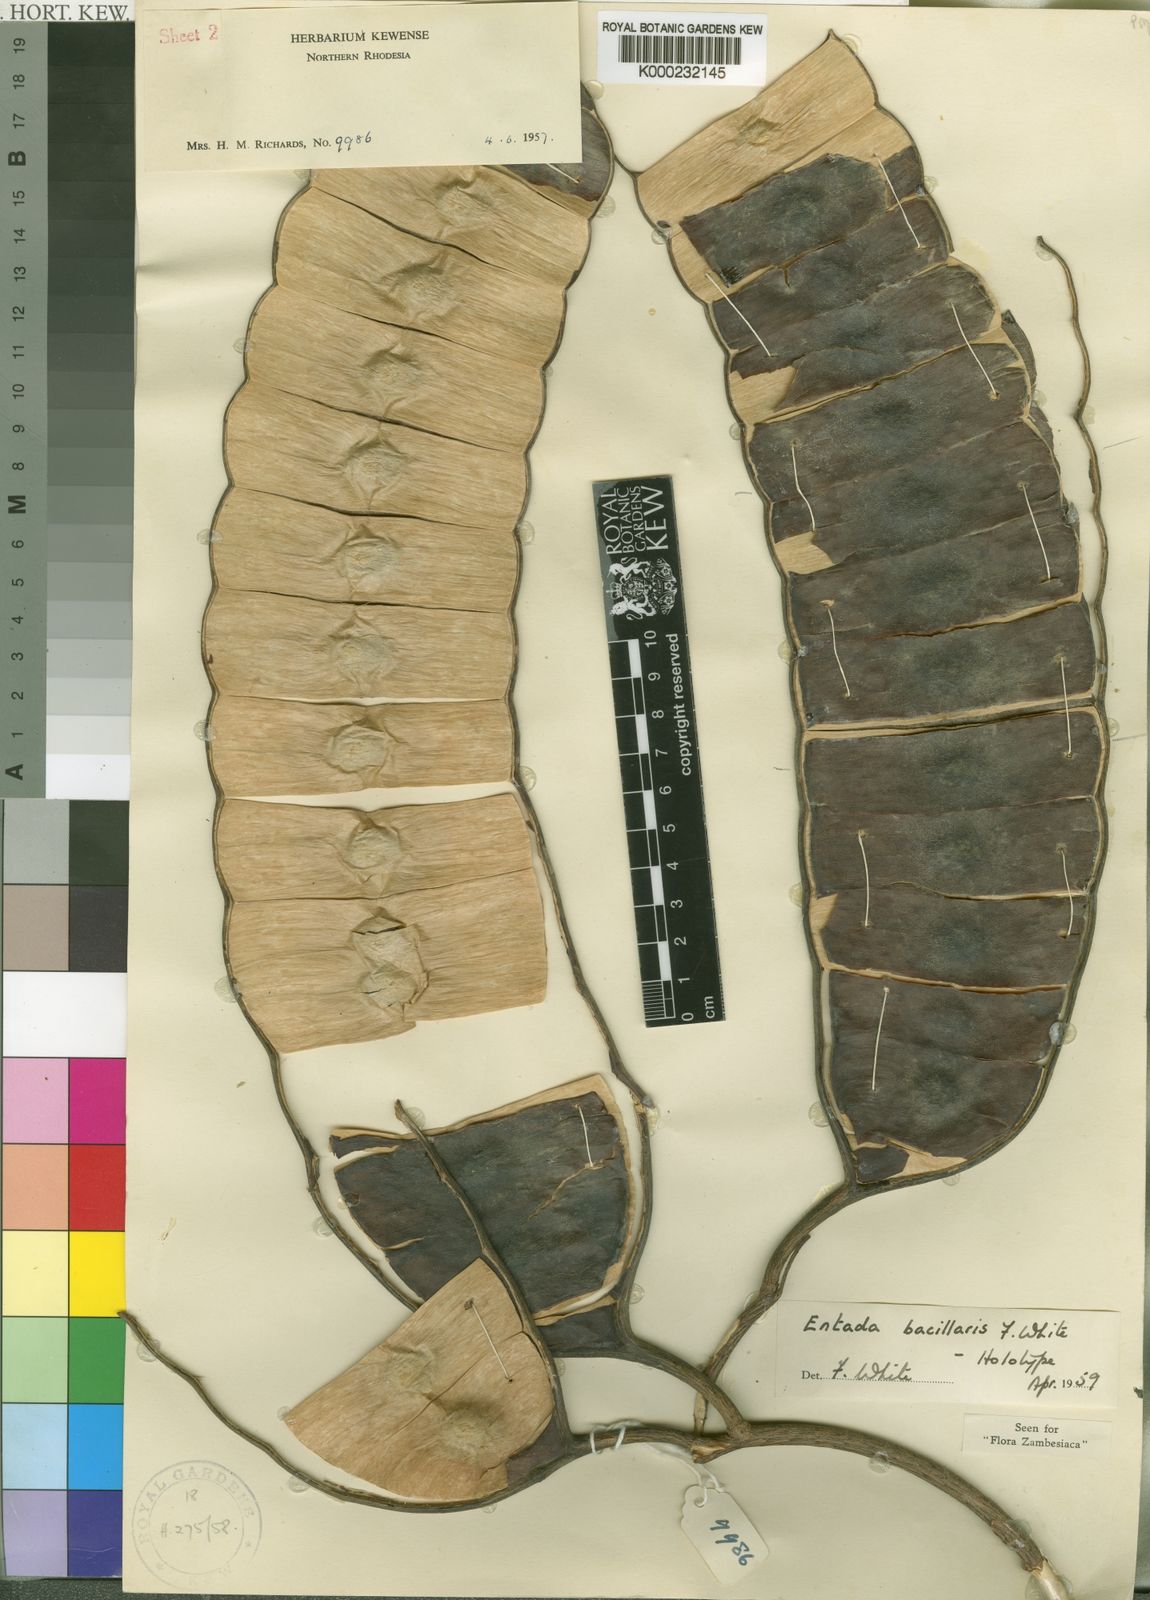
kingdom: Plantae
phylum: Tracheophyta
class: Magnoliopsida
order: Fabales
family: Fabaceae
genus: Entada
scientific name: Entada bacillaris
